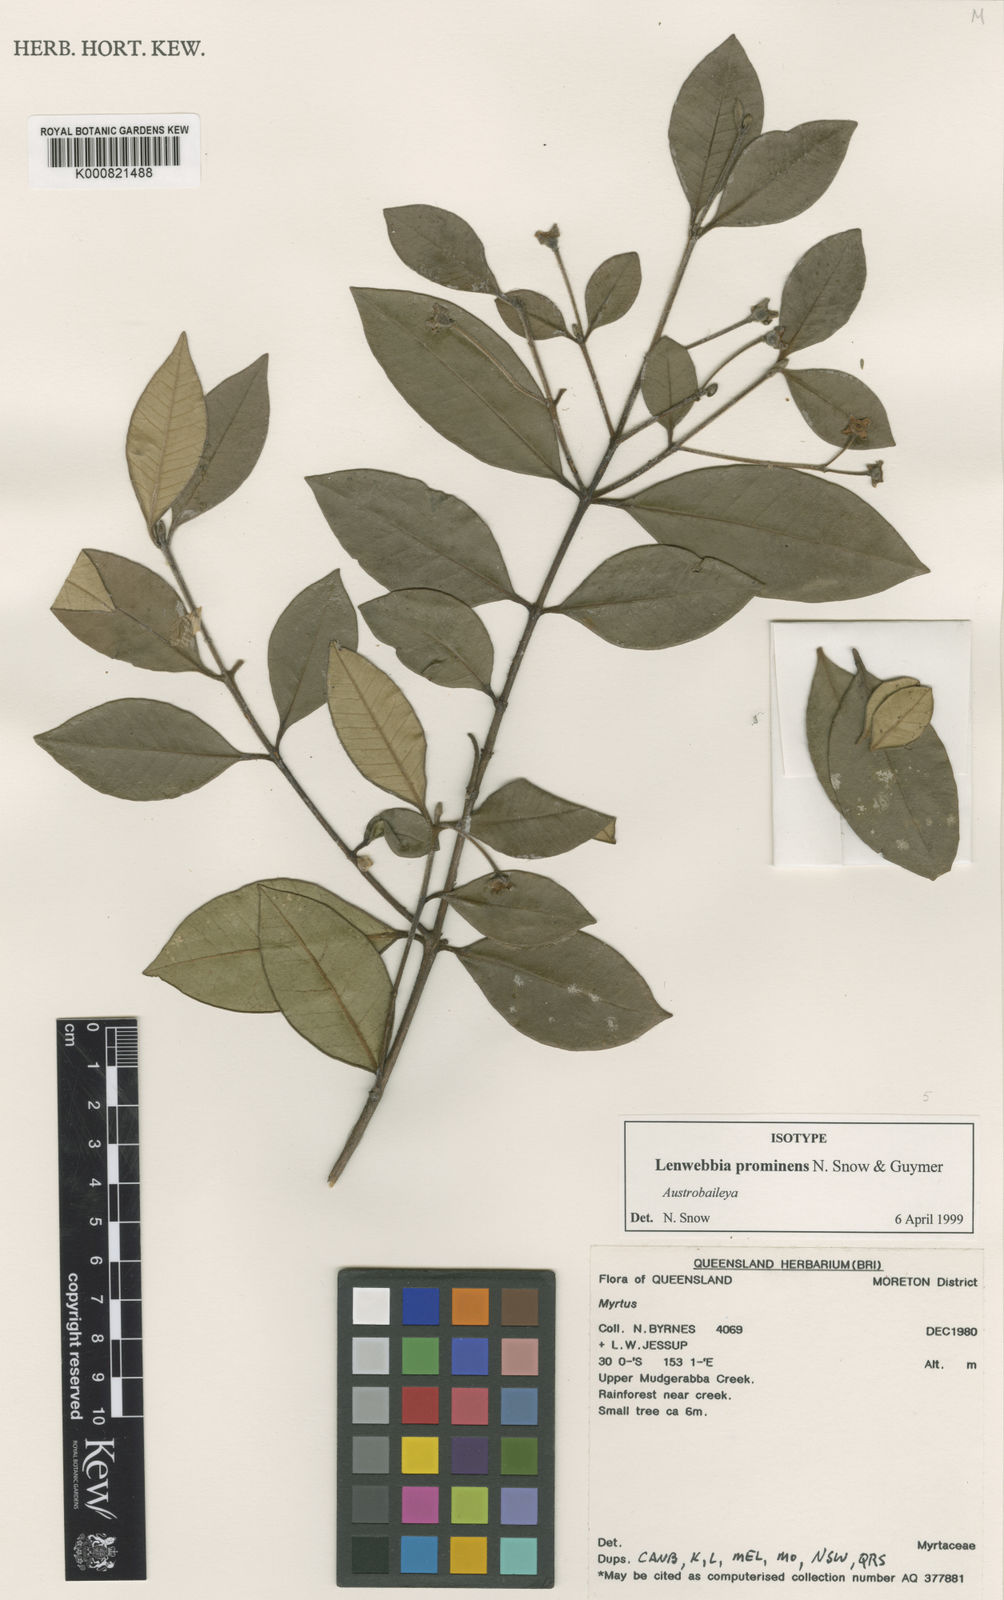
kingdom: Plantae
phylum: Tracheophyta
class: Magnoliopsida
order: Myrtales
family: Myrtaceae
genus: Lenwebbia
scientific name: Lenwebbia prominens
